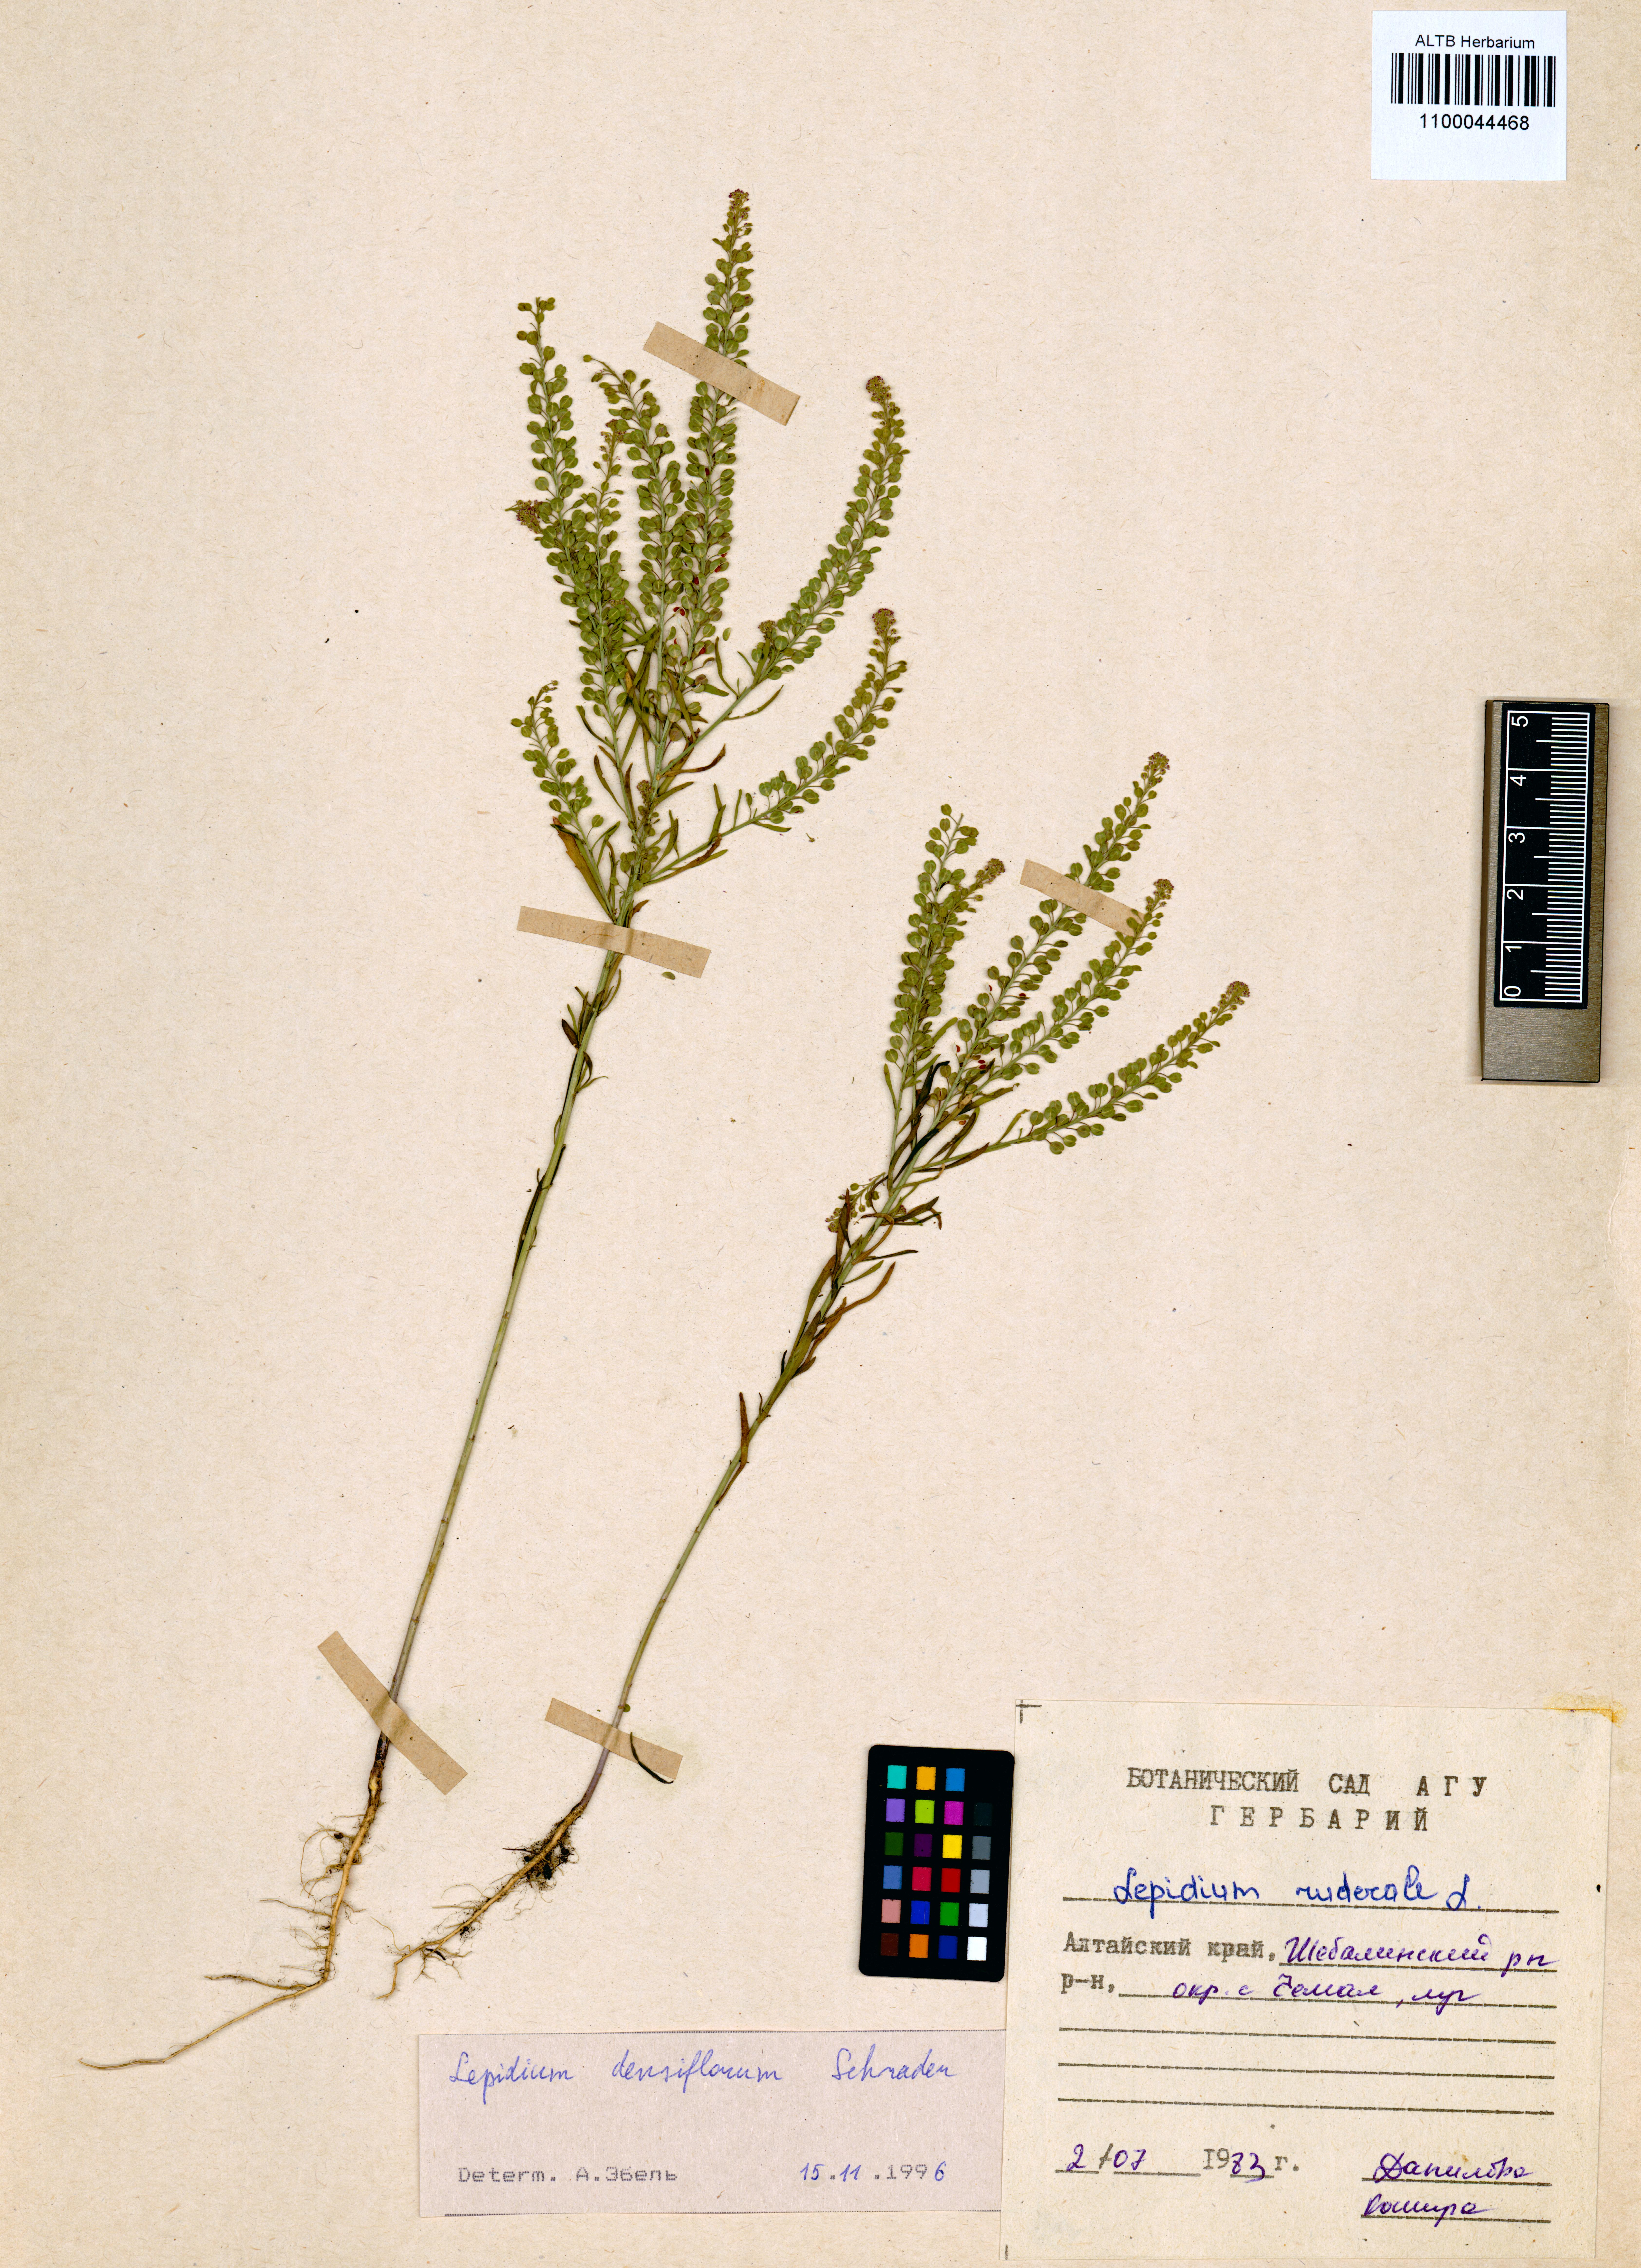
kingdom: Plantae
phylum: Tracheophyta
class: Magnoliopsida
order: Brassicales
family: Brassicaceae
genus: Lepidium
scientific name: Lepidium densiflorum
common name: Miner's pepperwort
